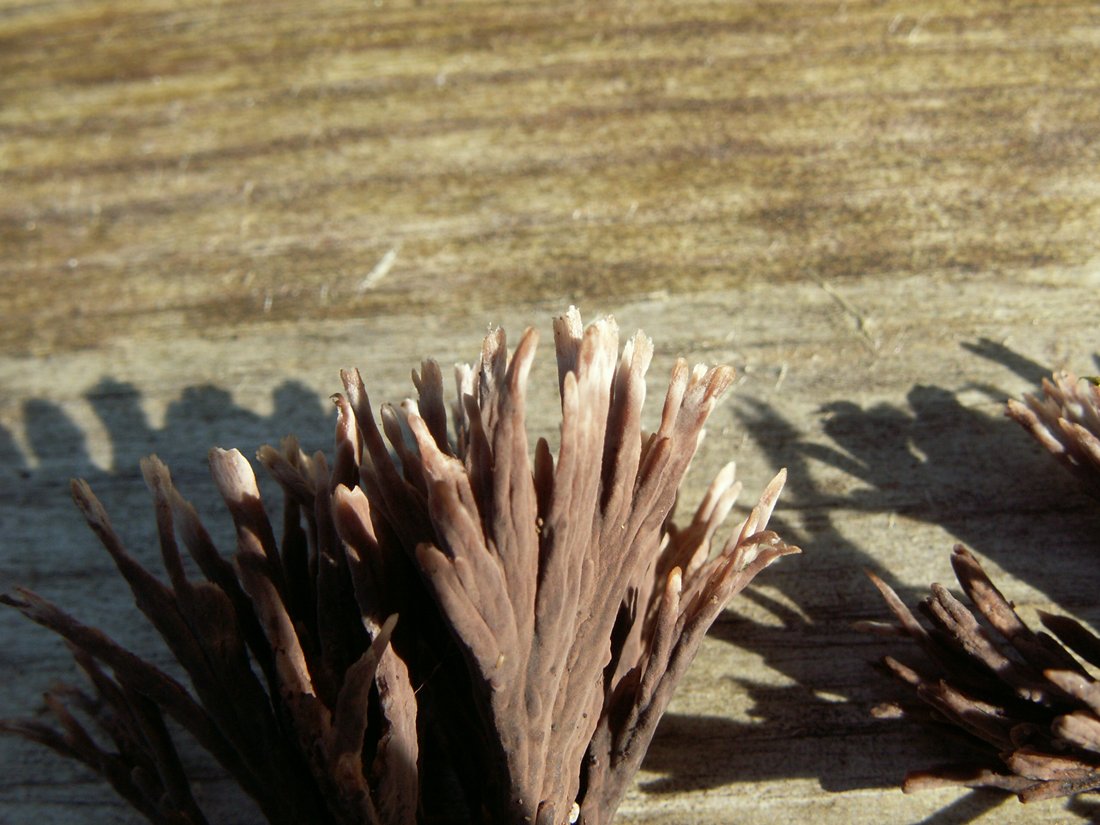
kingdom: Fungi
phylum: Basidiomycota
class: Agaricomycetes
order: Thelephorales
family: Thelephoraceae
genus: Thelephora
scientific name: Thelephora palmata
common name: grenet frynsesvamp
